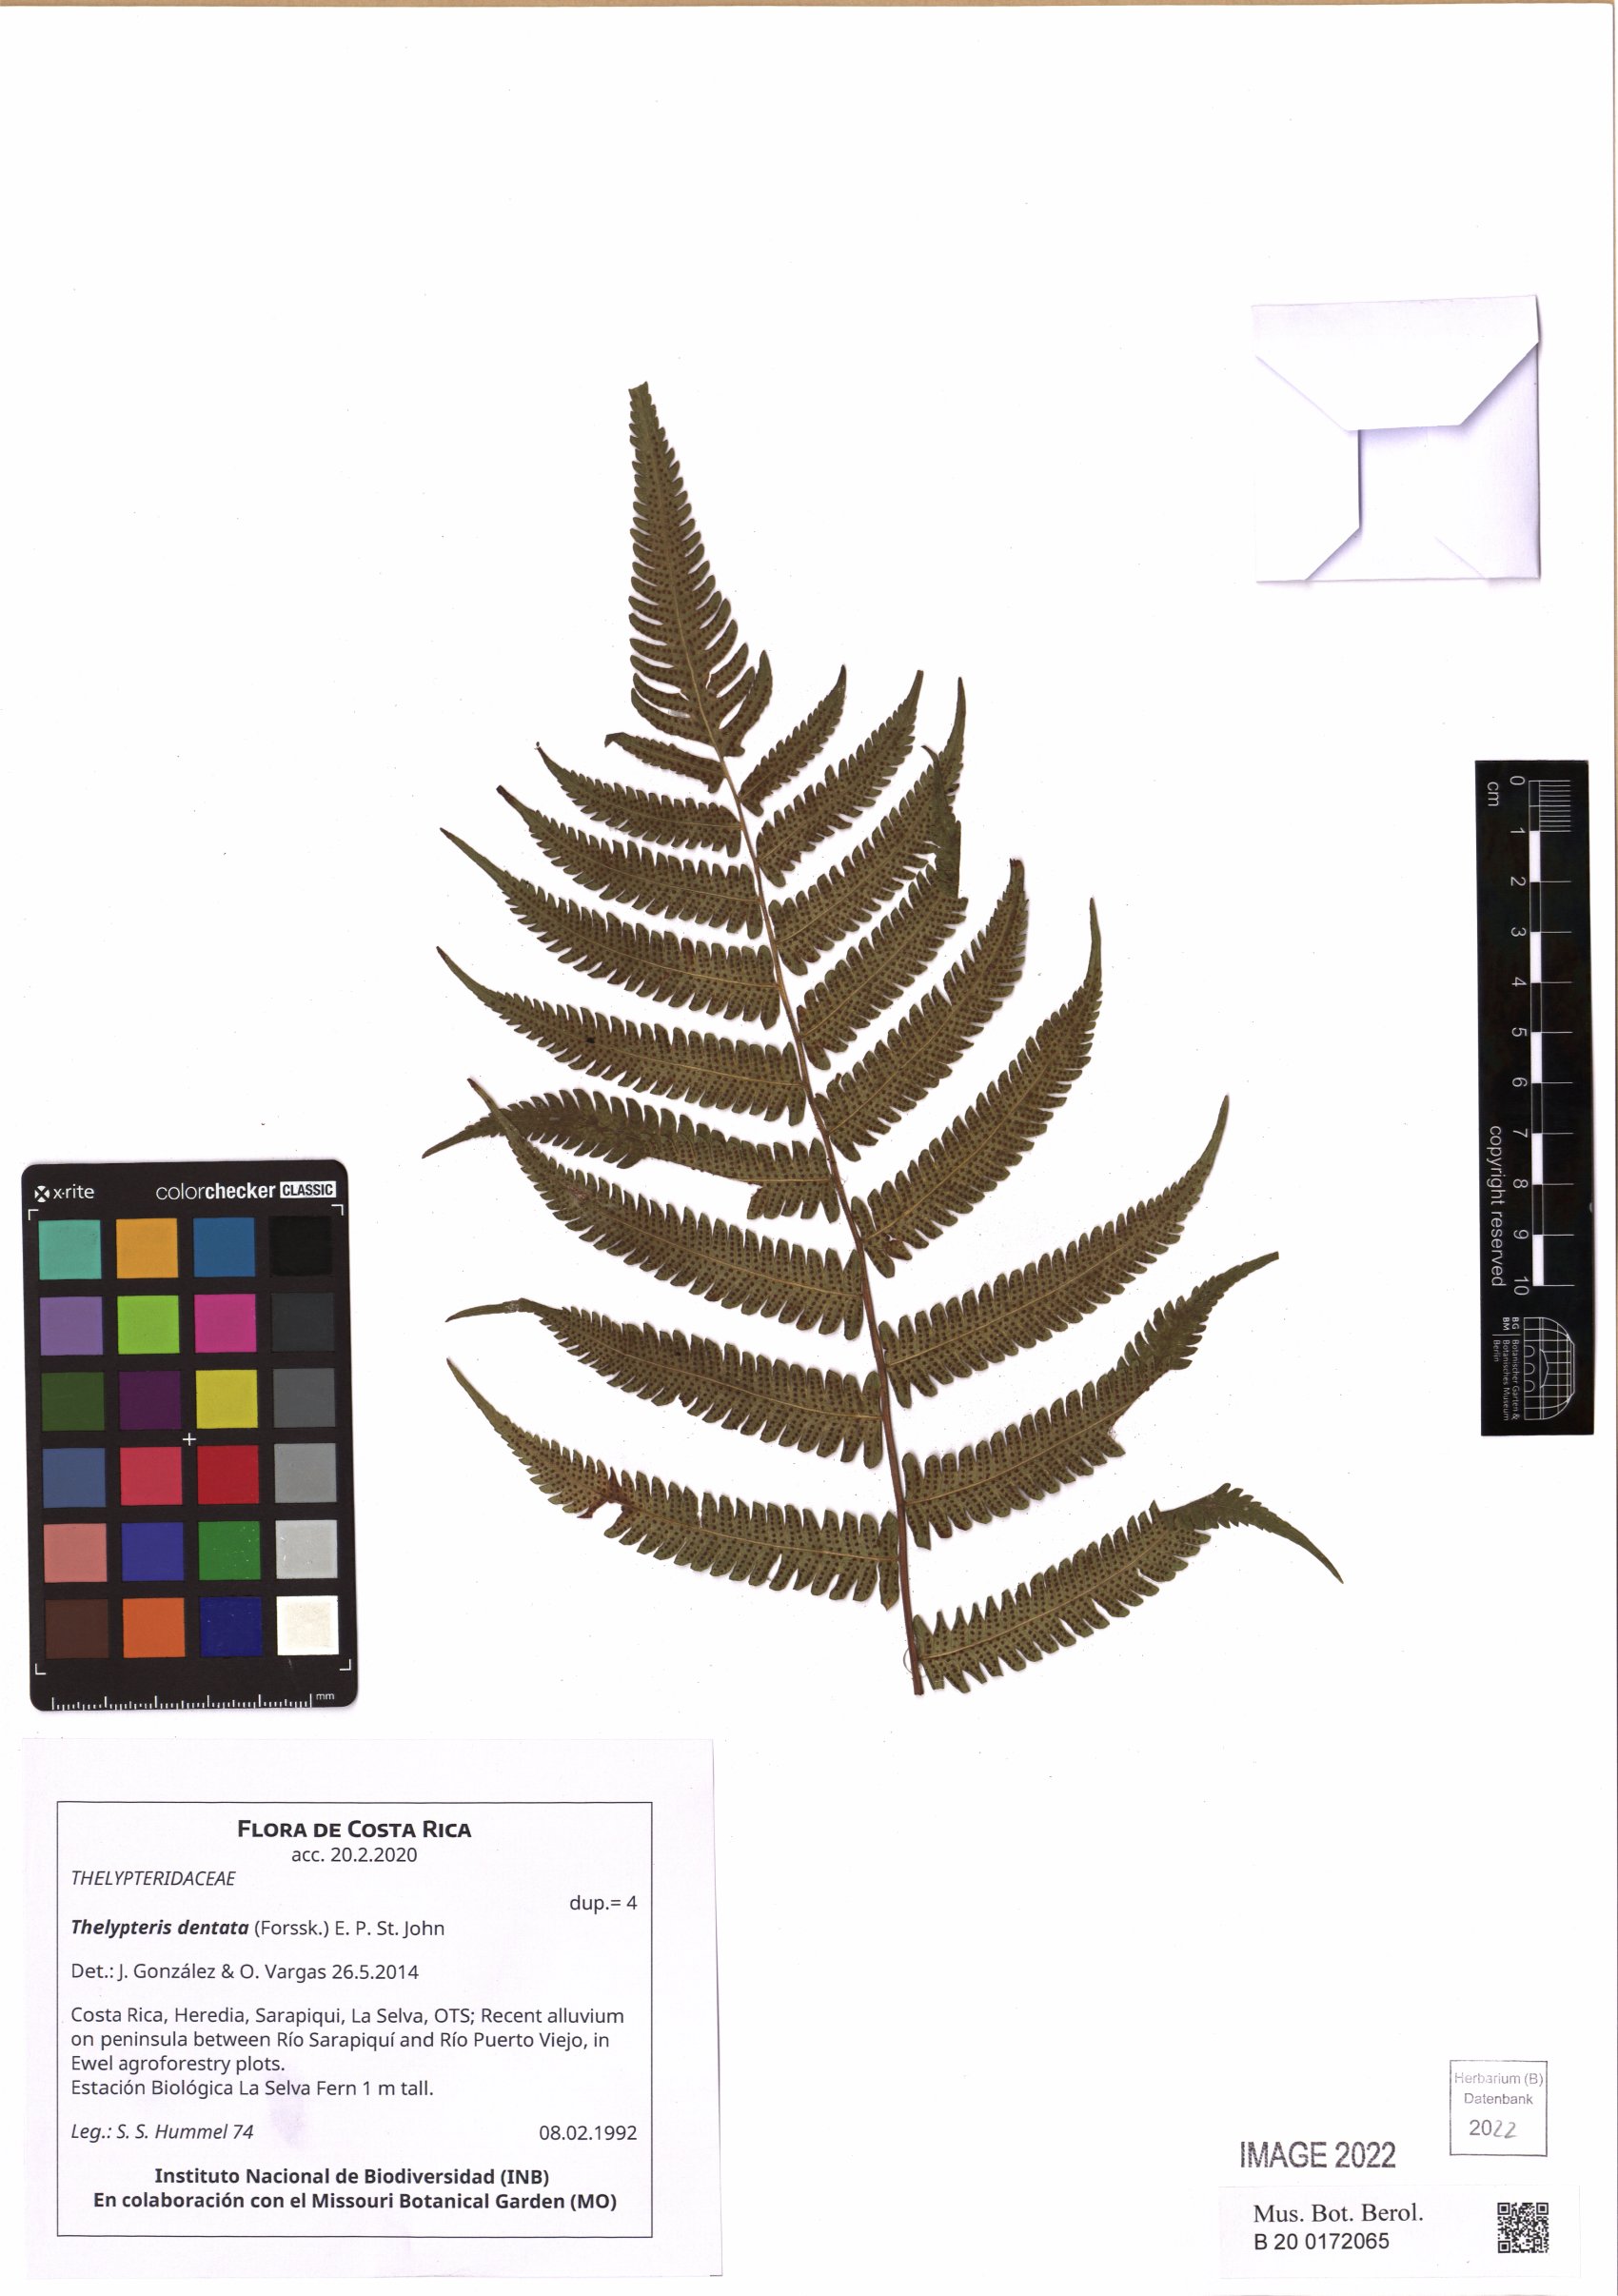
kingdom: Plantae
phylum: Tracheophyta
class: Polypodiopsida
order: Polypodiales
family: Thelypteridaceae
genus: Christella
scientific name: Christella dentata
